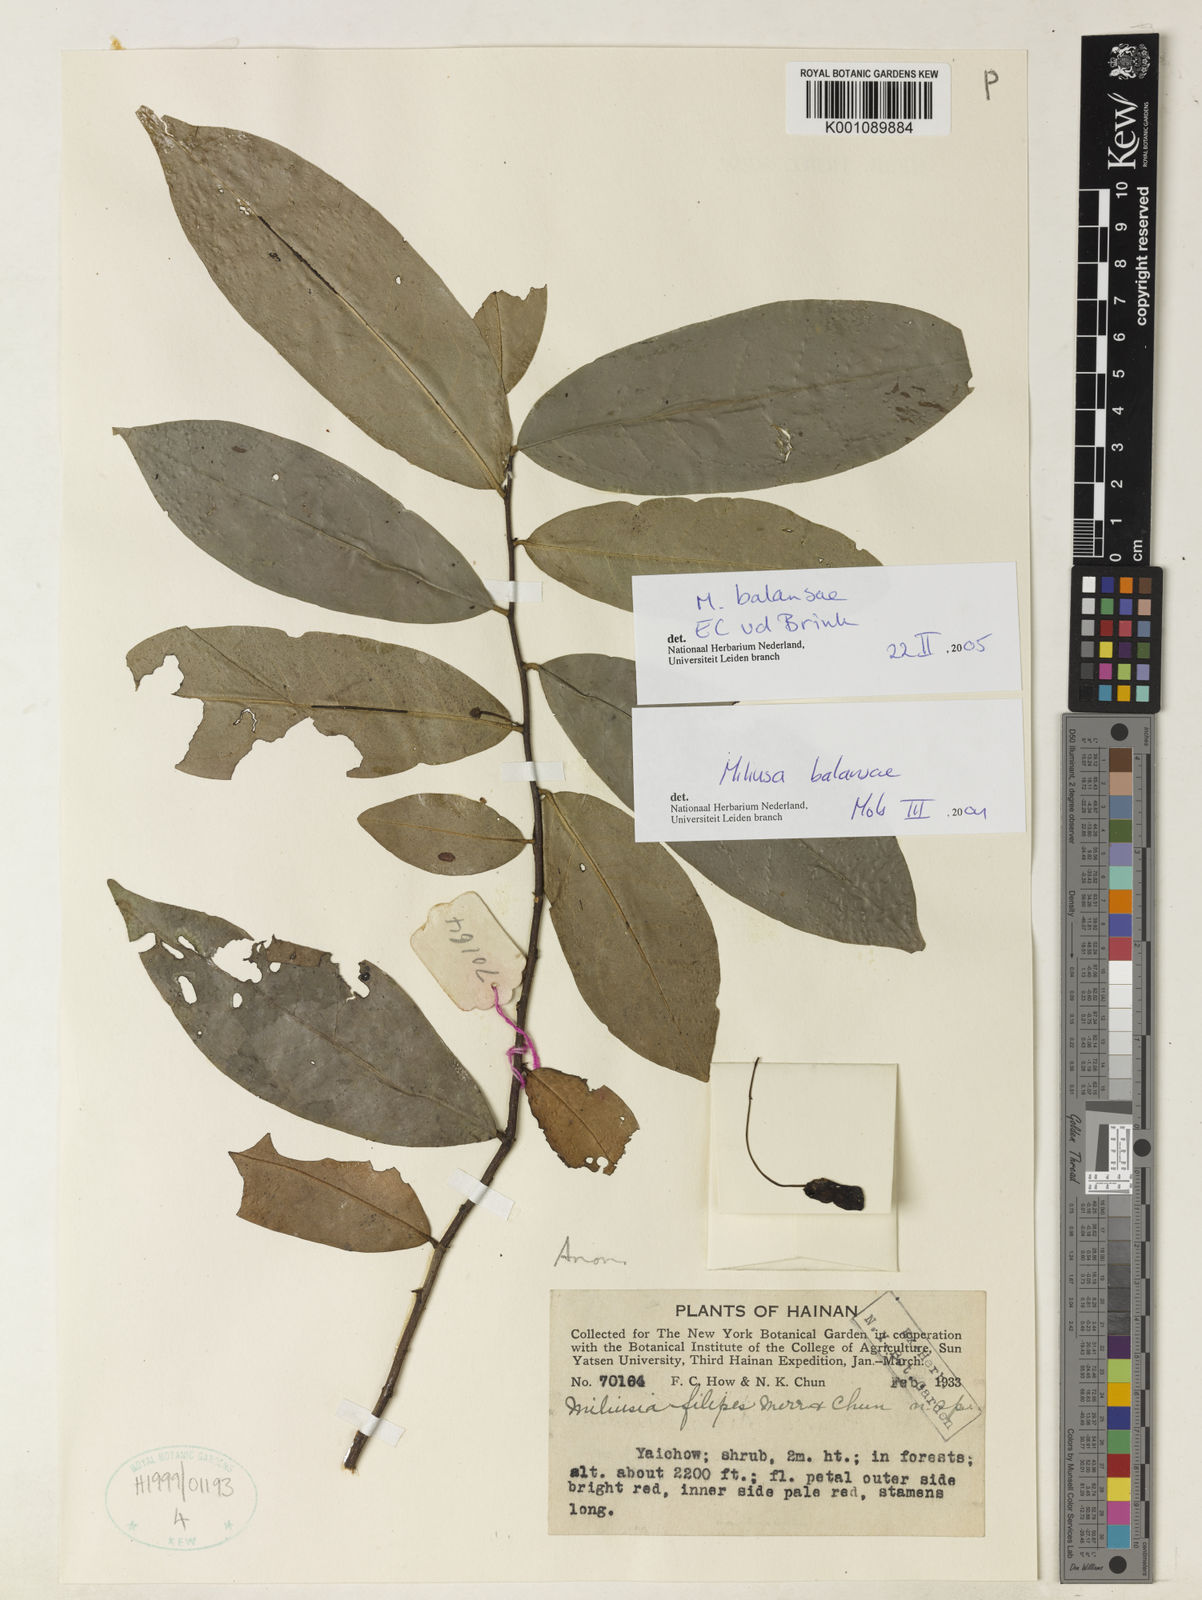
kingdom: Plantae
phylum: Tracheophyta
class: Magnoliopsida
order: Magnoliales
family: Annonaceae
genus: Miliusa
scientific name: Miliusa balansae
